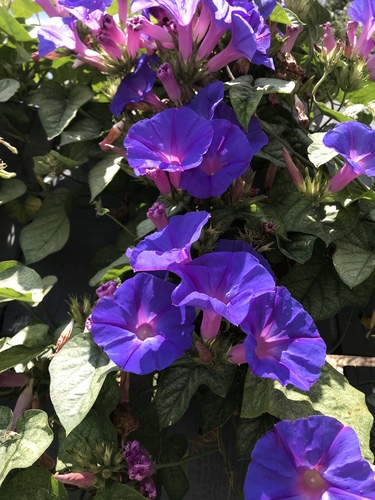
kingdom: Plantae
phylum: Tracheophyta
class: Magnoliopsida
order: Solanales
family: Convolvulaceae
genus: Ipomoea
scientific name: Ipomoea indica
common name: Blue dawnflower
